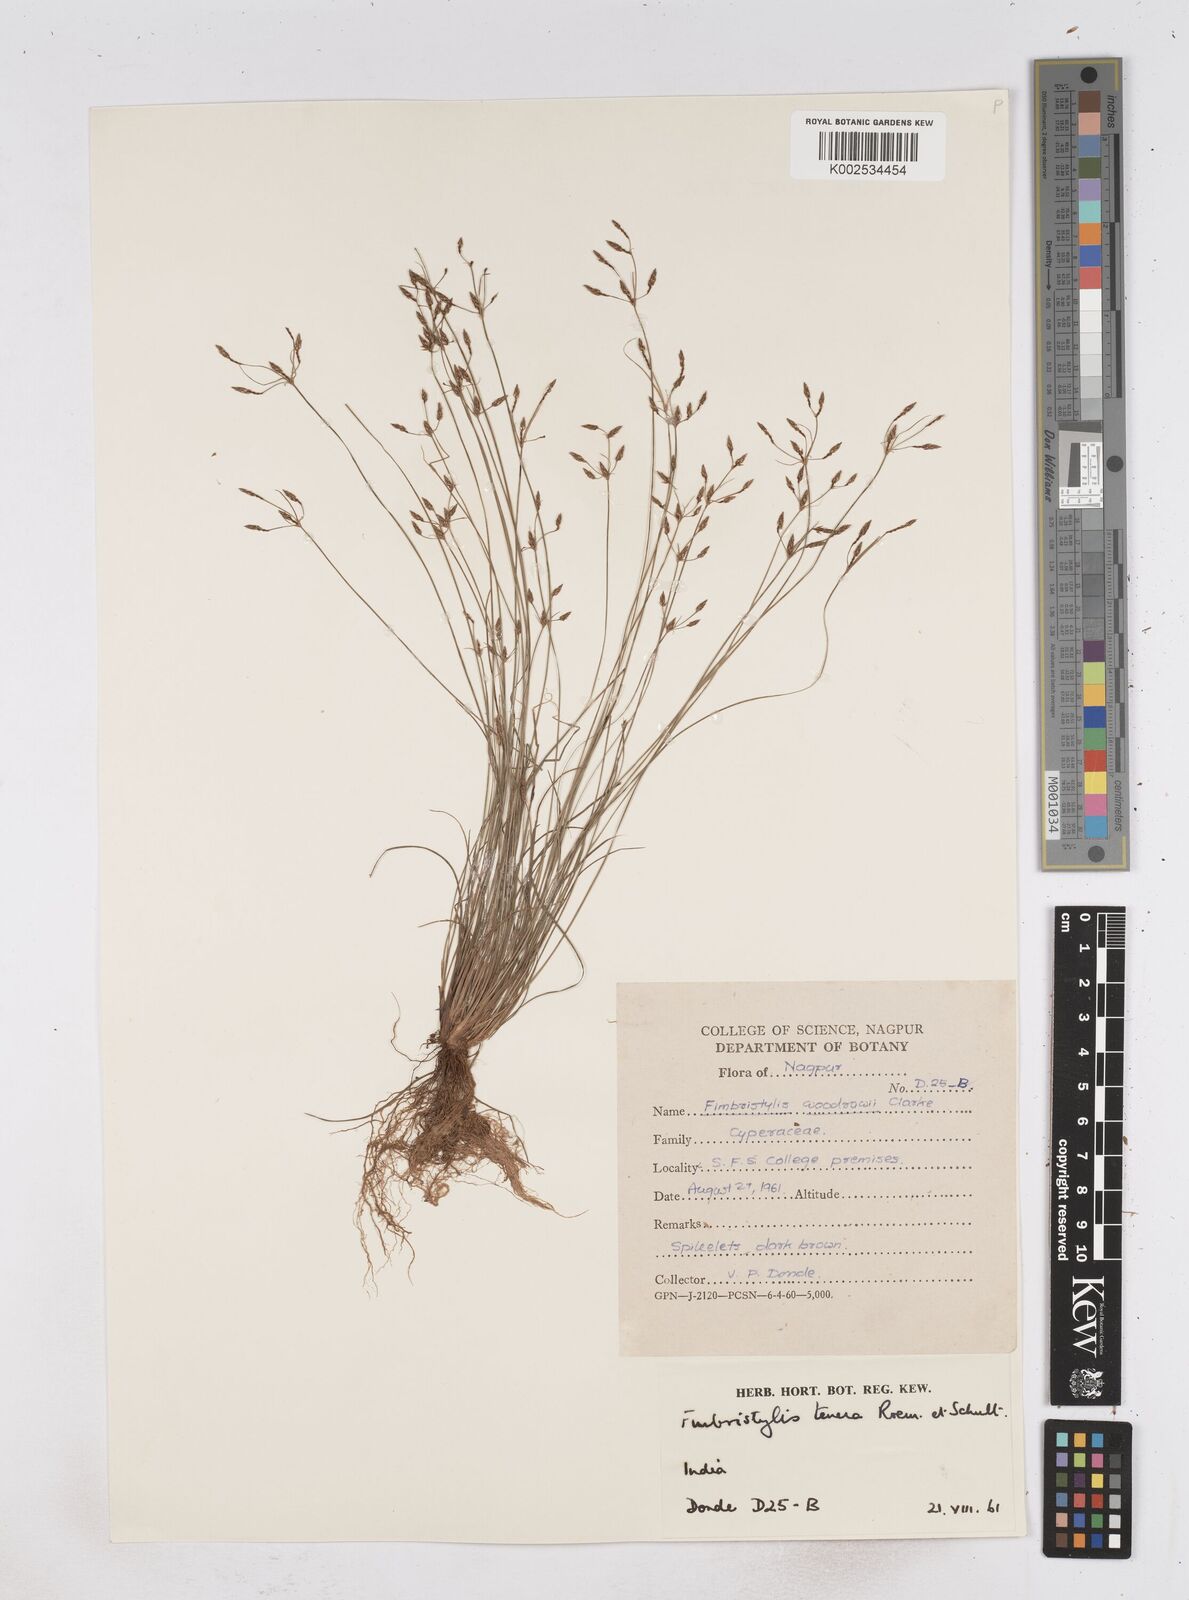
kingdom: Plantae
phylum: Tracheophyta
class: Liliopsida
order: Poales
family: Cyperaceae
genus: Fimbristylis
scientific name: Fimbristylis tenera
